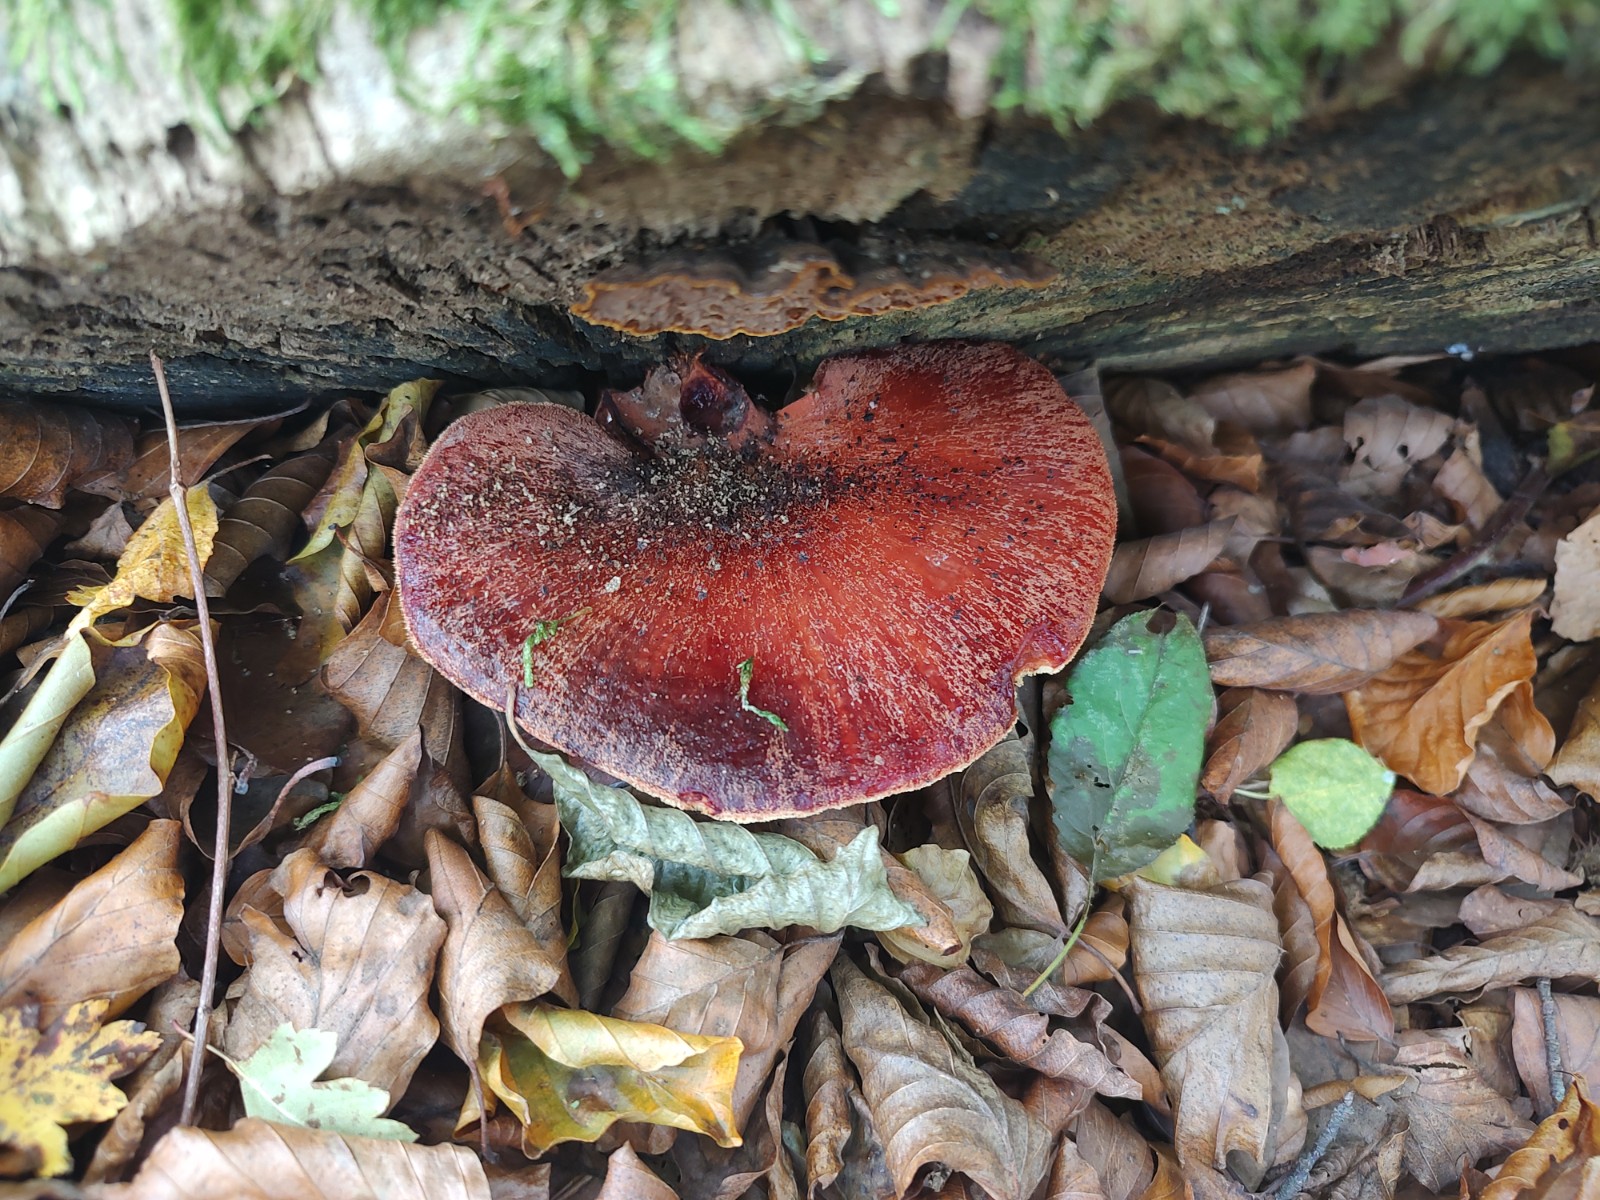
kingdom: Fungi
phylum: Basidiomycota
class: Agaricomycetes
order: Agaricales
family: Fistulinaceae
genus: Fistulina
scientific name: Fistulina hepatica
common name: oksetunge
